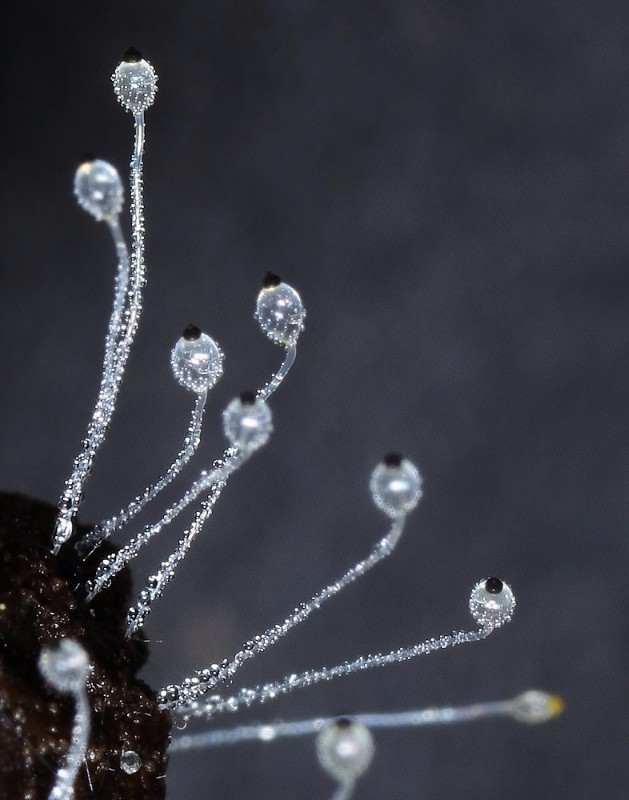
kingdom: Fungi
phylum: Mucoromycota
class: Mucoromycetes
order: Mucorales
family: Pilobolaceae
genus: Pilobolus
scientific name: Pilobolus
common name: boldkaster
